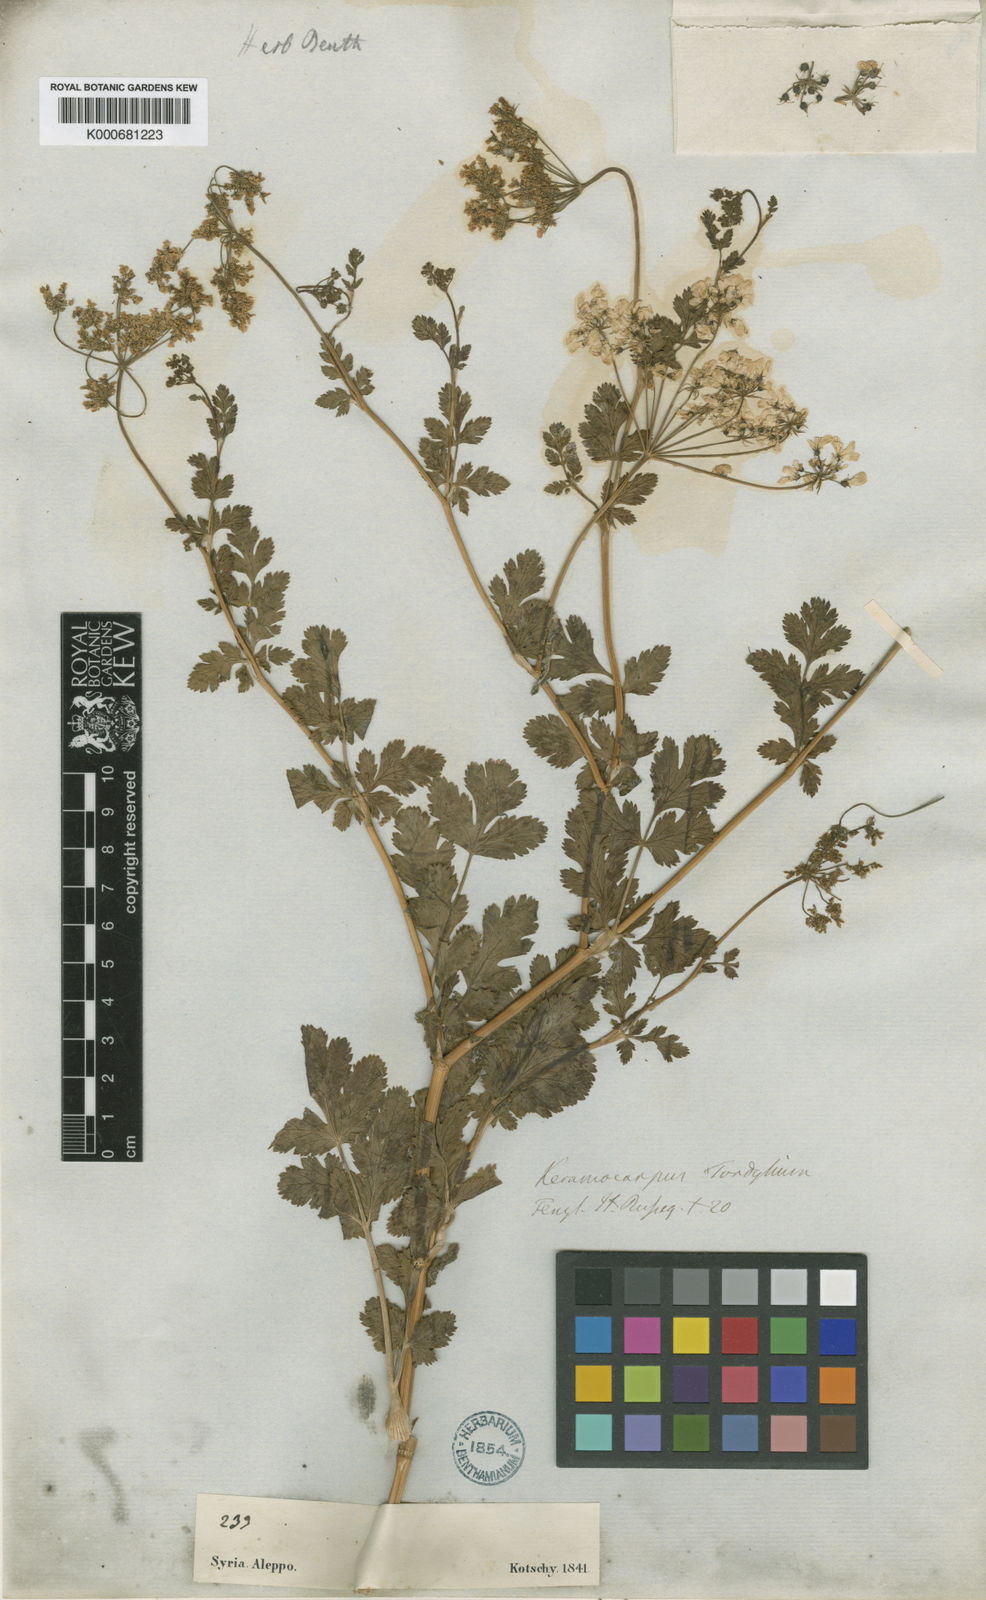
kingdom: Plantae
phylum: Tracheophyta
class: Magnoliopsida
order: Apiales
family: Apiaceae
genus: Coriandrum
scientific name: Coriandrum tordylium
